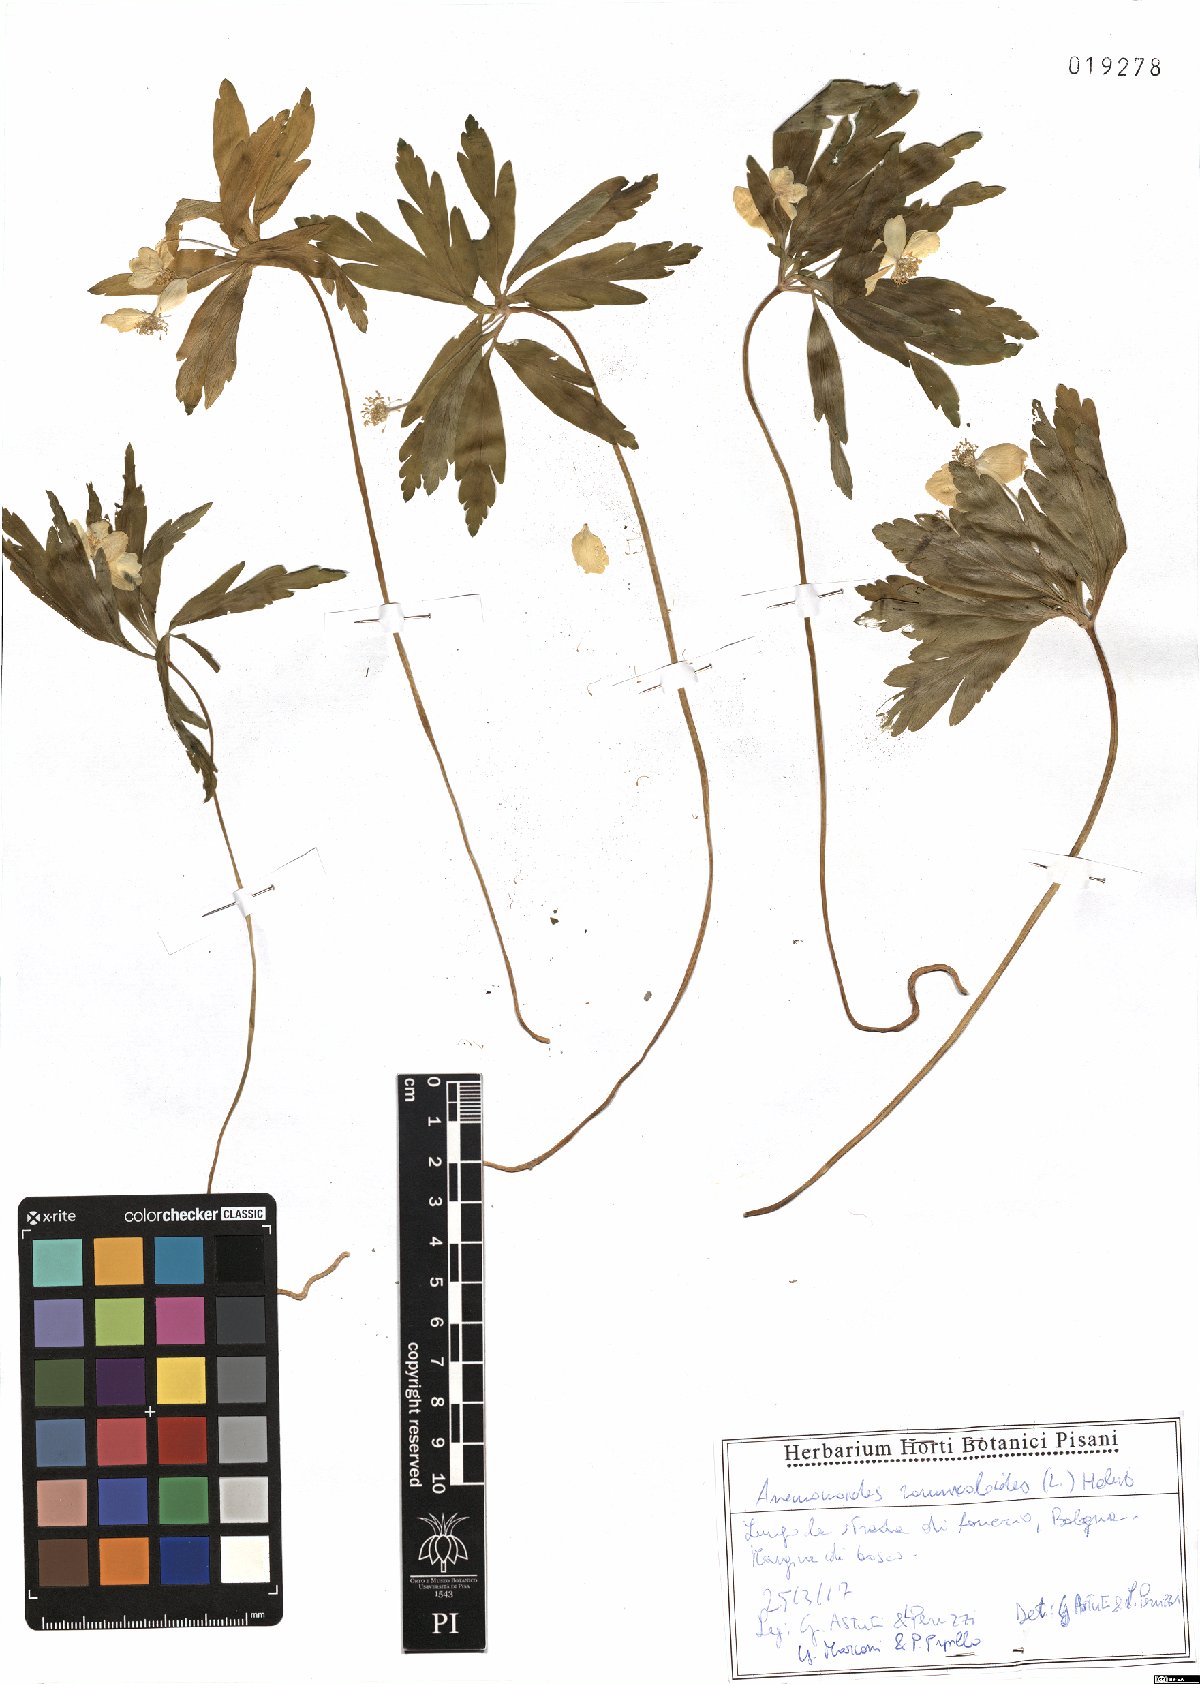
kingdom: Plantae
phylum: Tracheophyta
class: Magnoliopsida
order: Ranunculales
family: Ranunculaceae
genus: Anemone
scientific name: Anemone ranunculoides
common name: Yellow anemone
